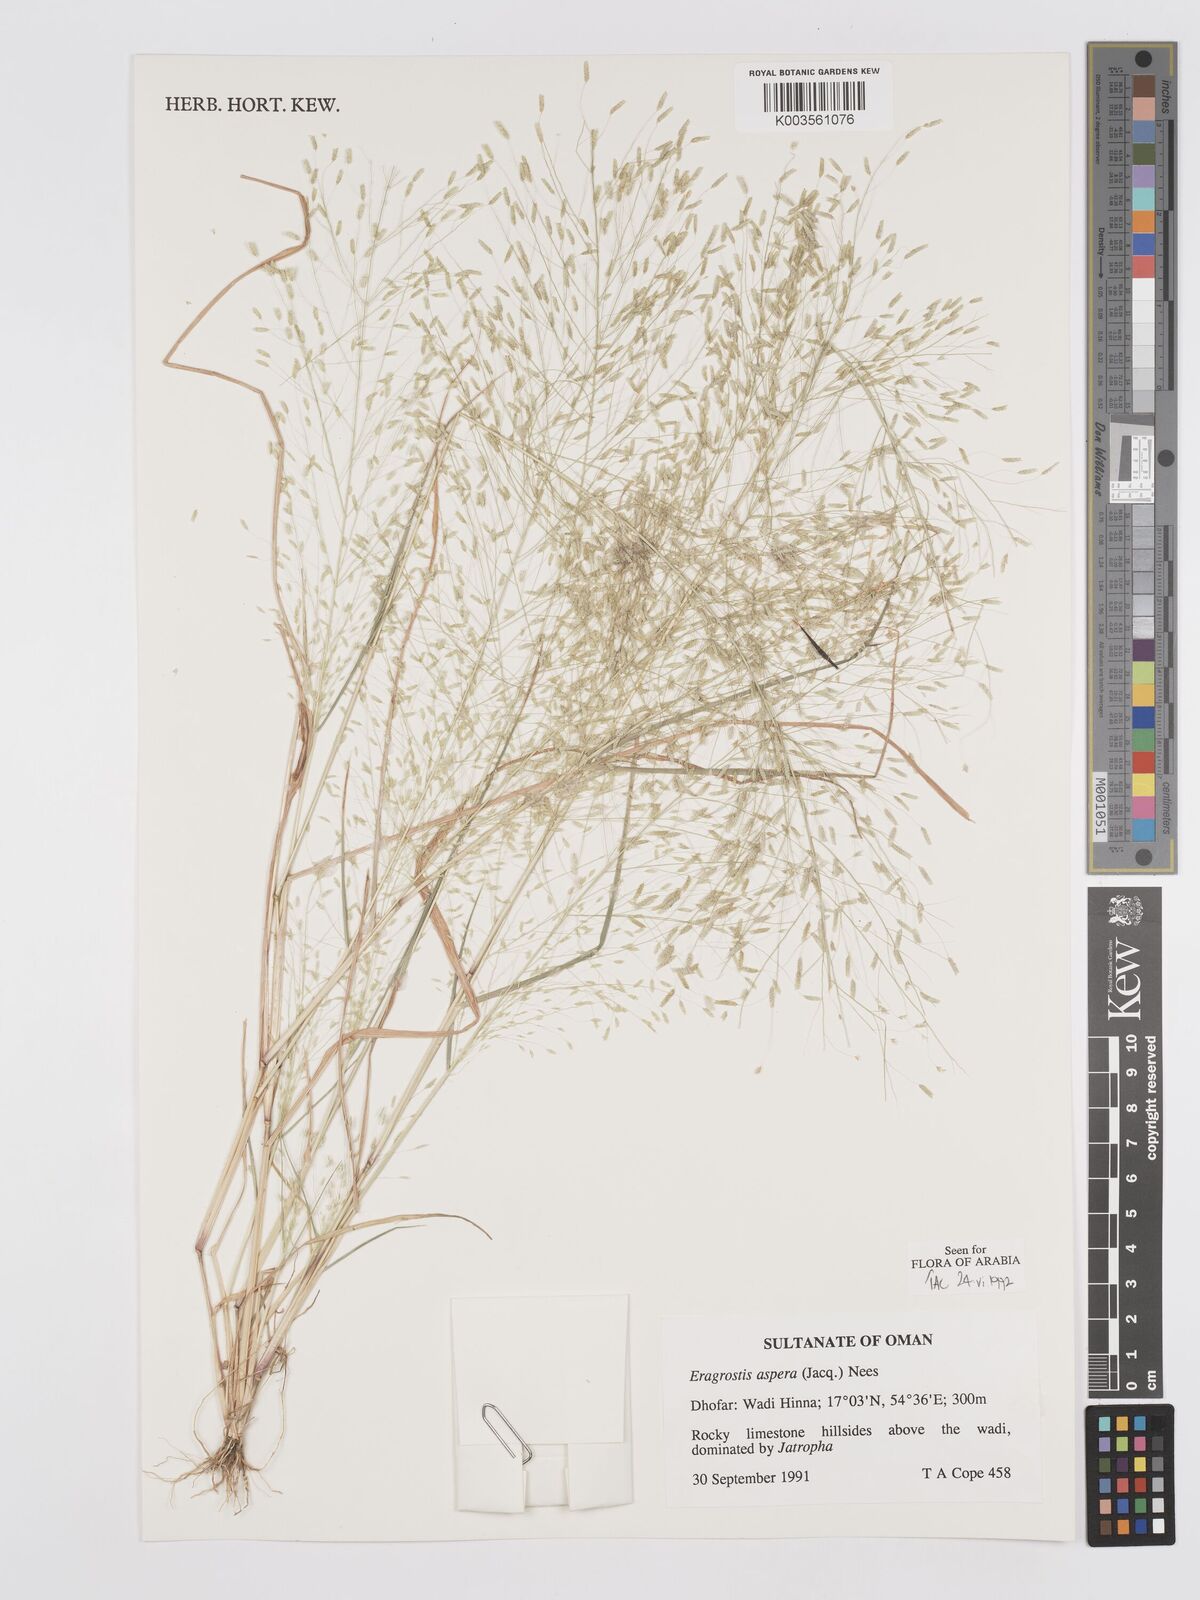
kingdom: Plantae
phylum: Tracheophyta
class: Liliopsida
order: Poales
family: Poaceae
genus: Eragrostis
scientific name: Eragrostis aspera
